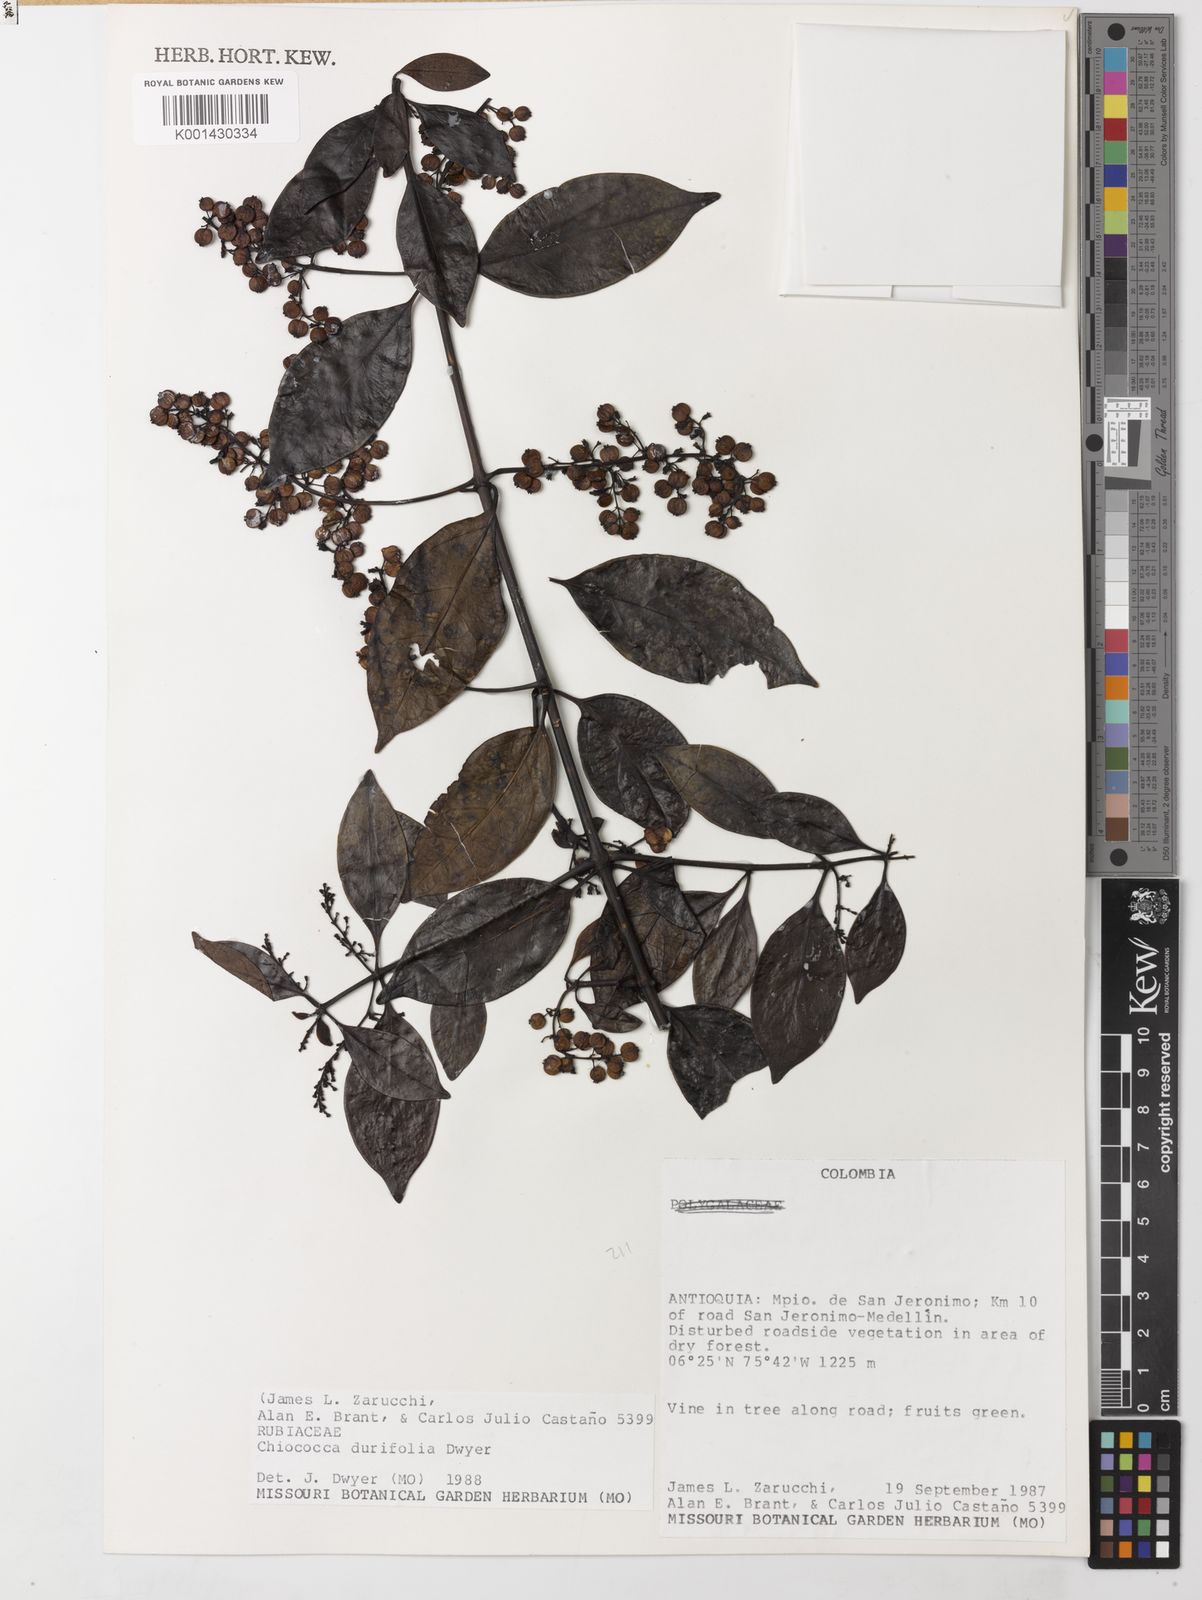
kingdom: Plantae
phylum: Tracheophyta
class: Magnoliopsida
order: Gentianales
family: Rubiaceae
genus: Chiococca
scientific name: Chiococca belizensis
